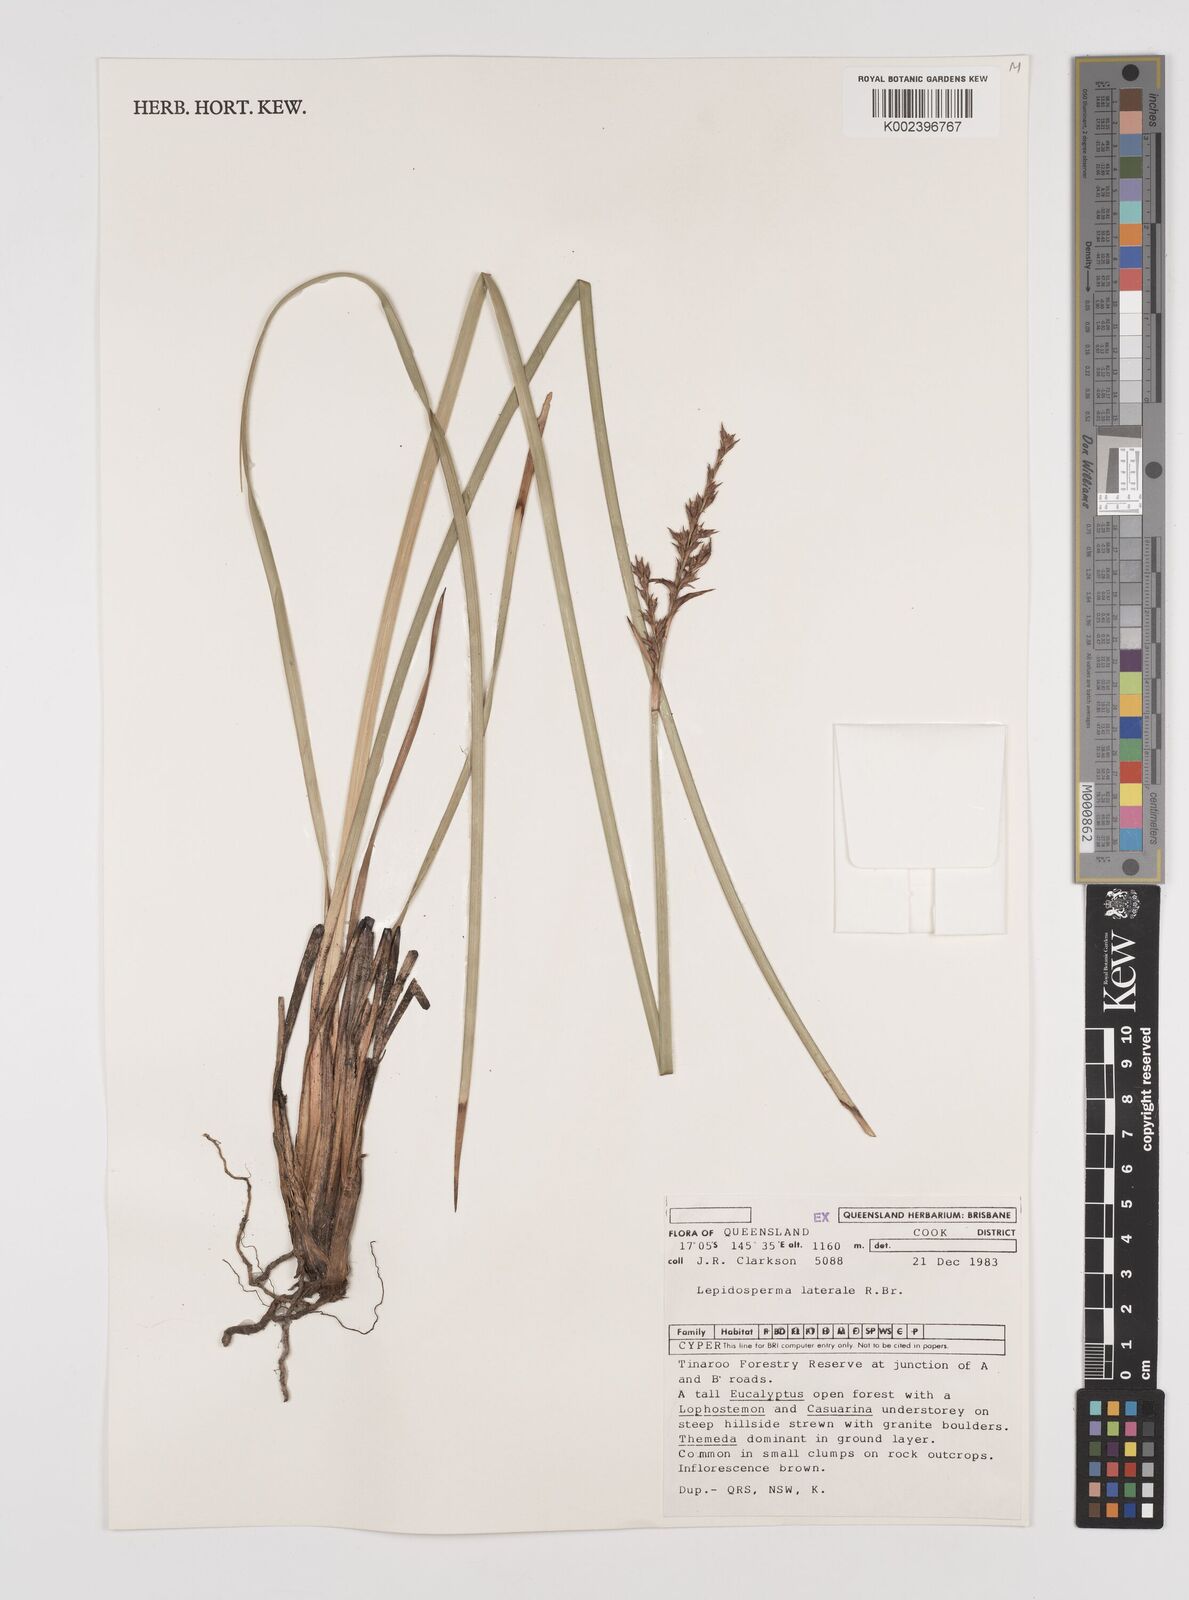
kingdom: Plantae
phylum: Tracheophyta
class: Liliopsida
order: Poales
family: Cyperaceae
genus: Lepidosperma
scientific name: Lepidosperma laterale
